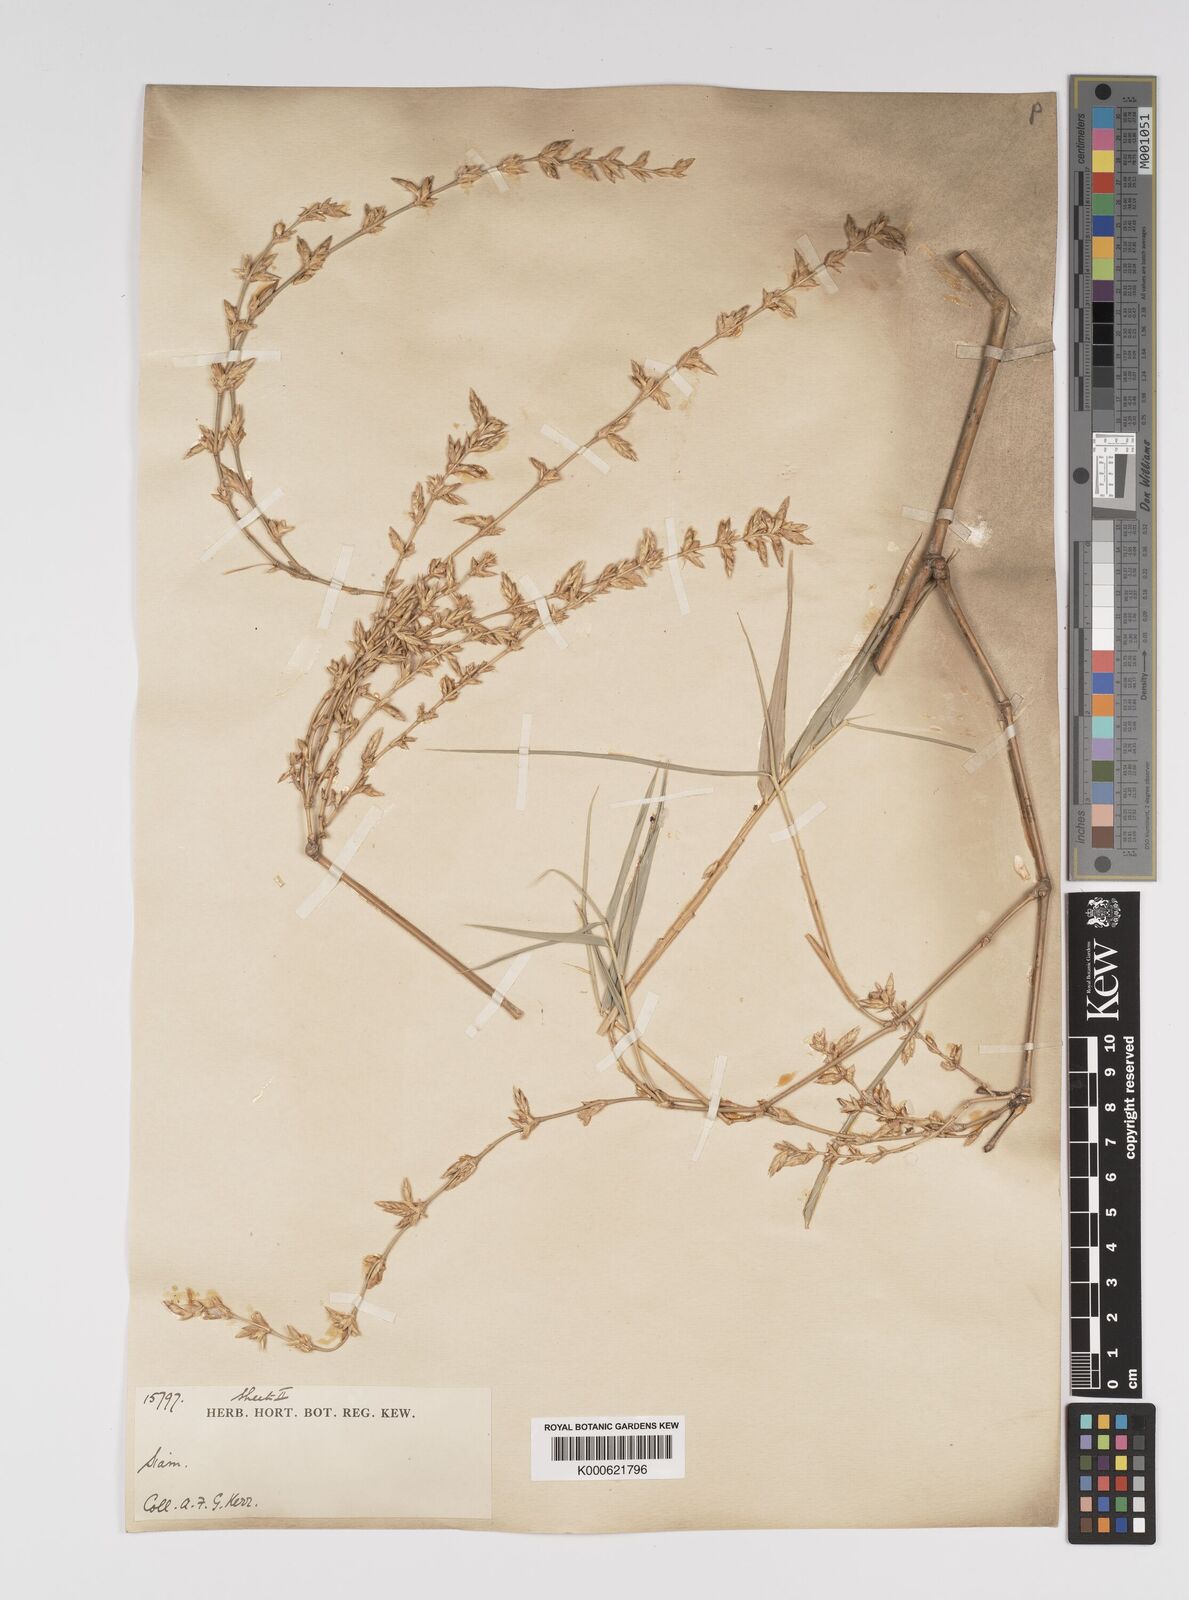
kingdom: Plantae
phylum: Tracheophyta
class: Liliopsida
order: Poales
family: Poaceae
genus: Bambusa
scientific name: Bambusa bambos
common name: Indian thorny bamboo
